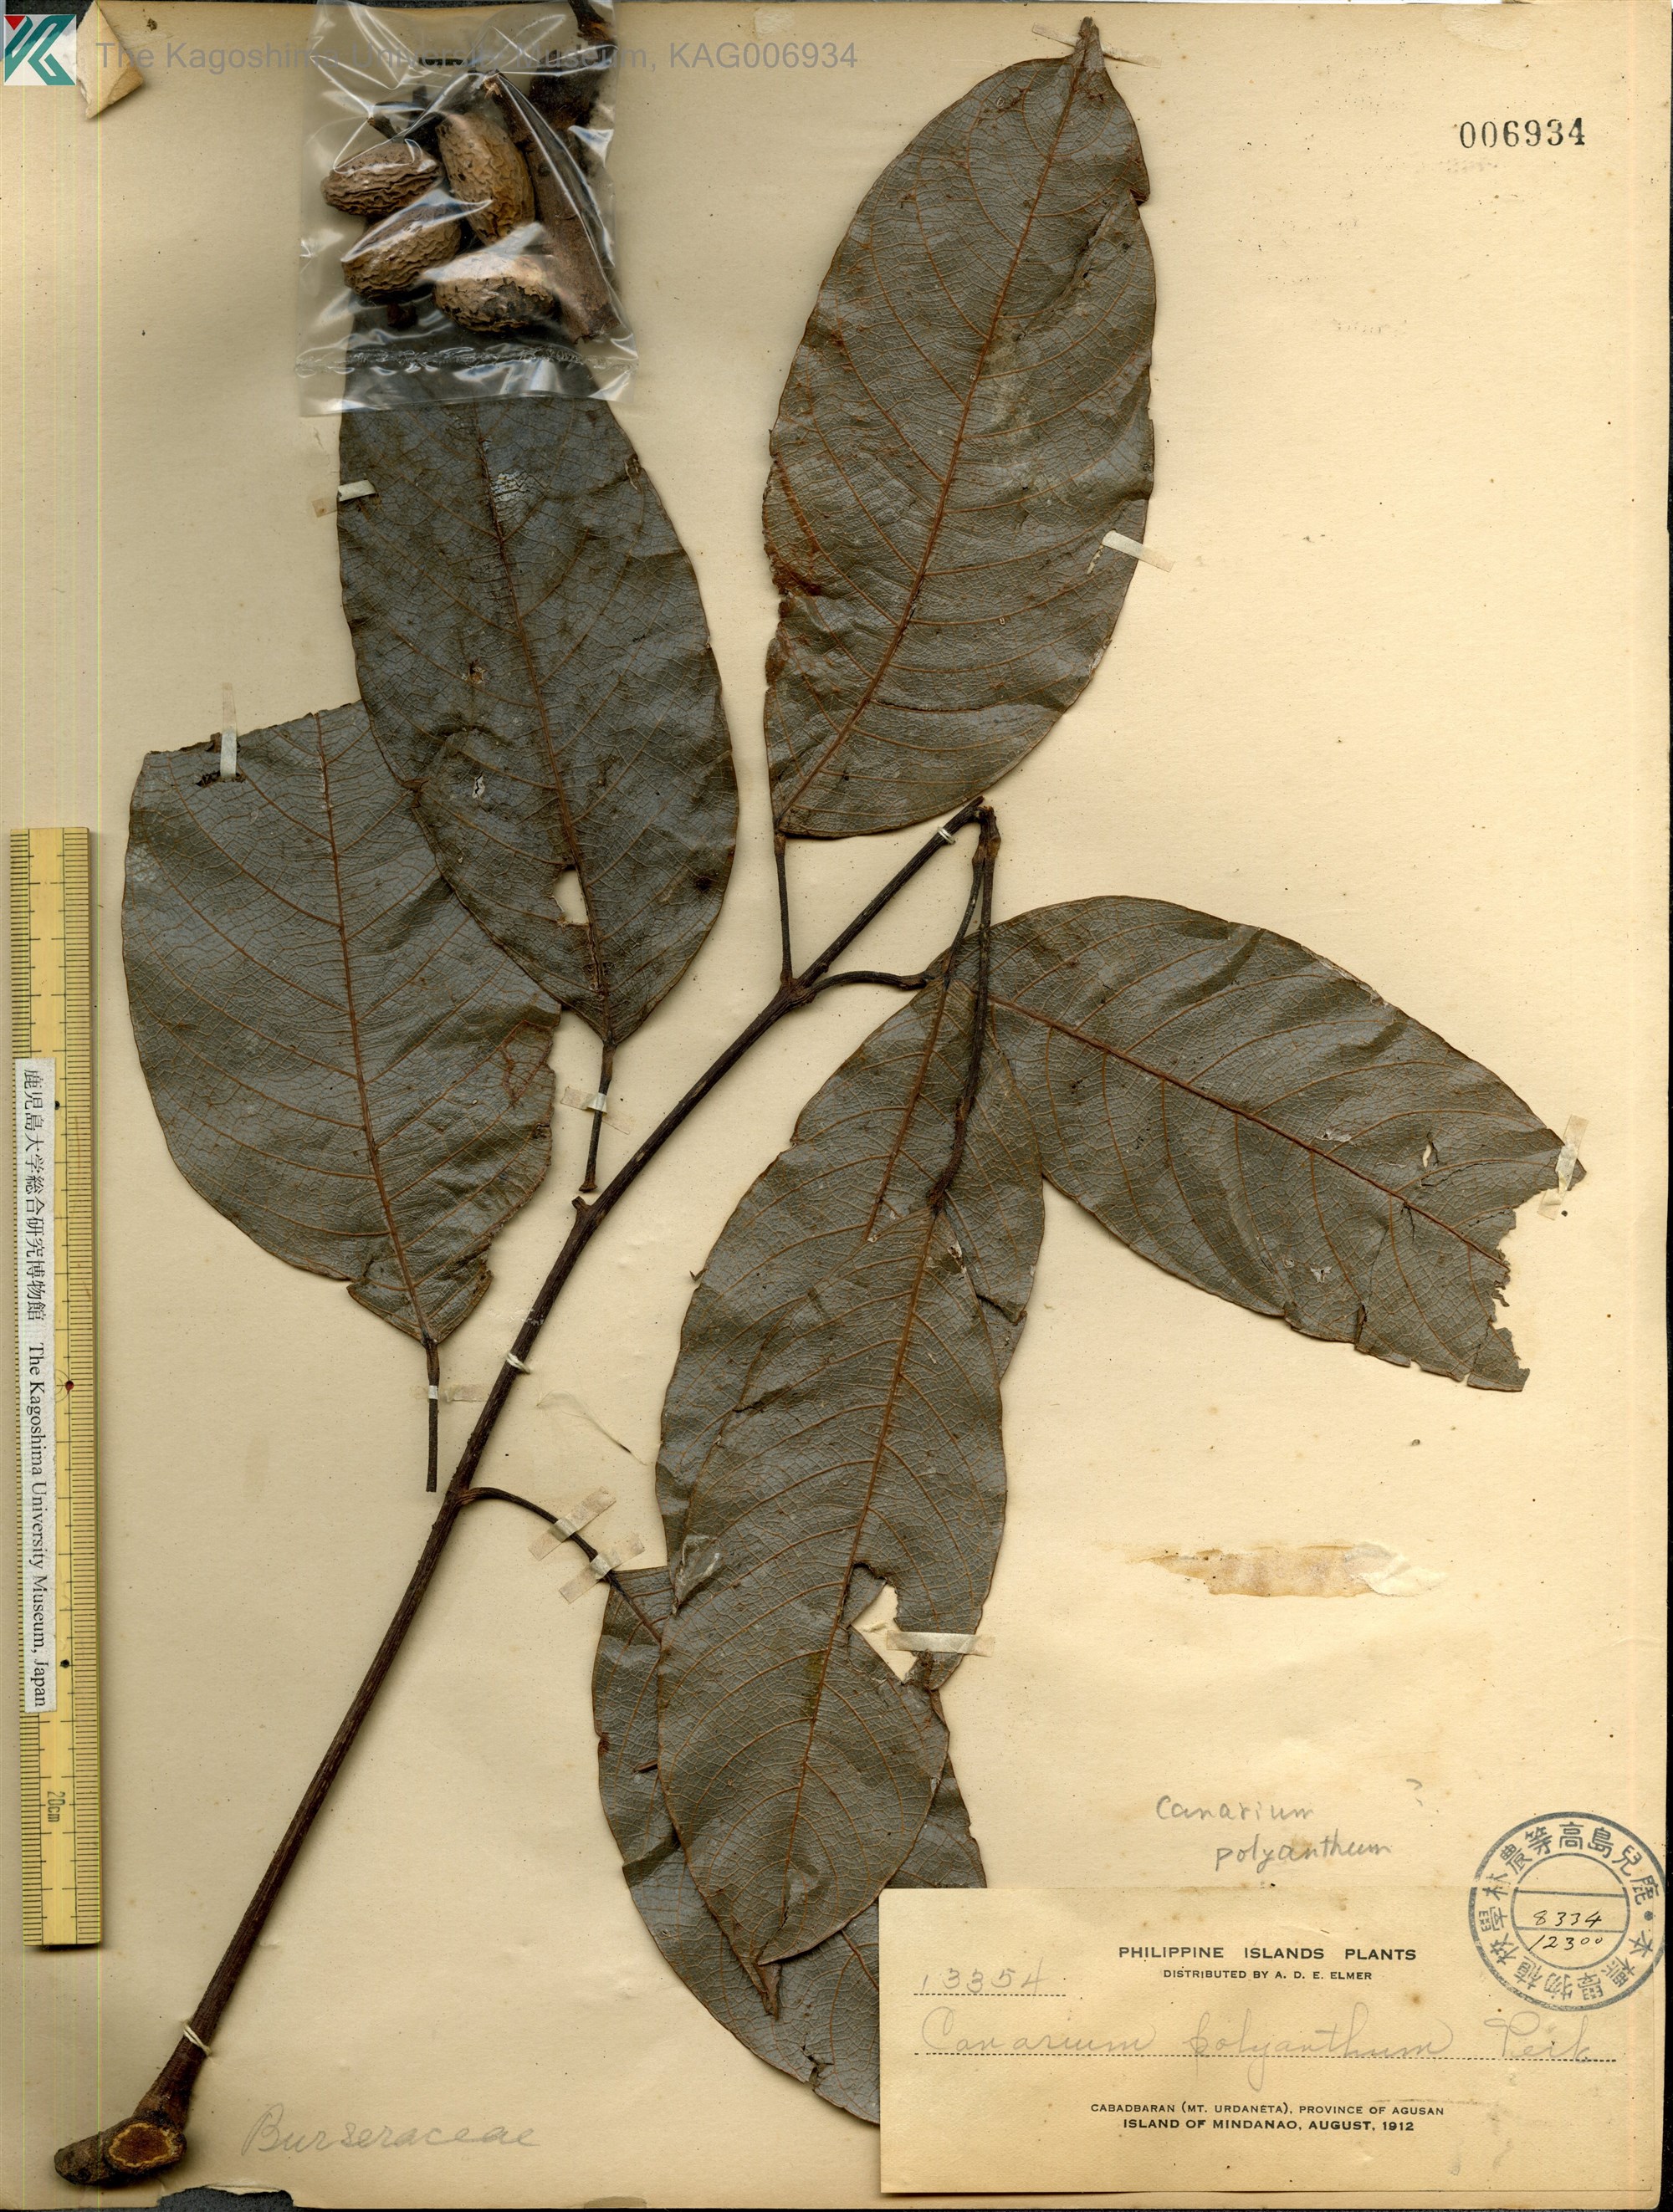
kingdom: Plantae
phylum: Tracheophyta
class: Magnoliopsida
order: Sapindales
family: Burseraceae
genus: Canarium
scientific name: Canarium
